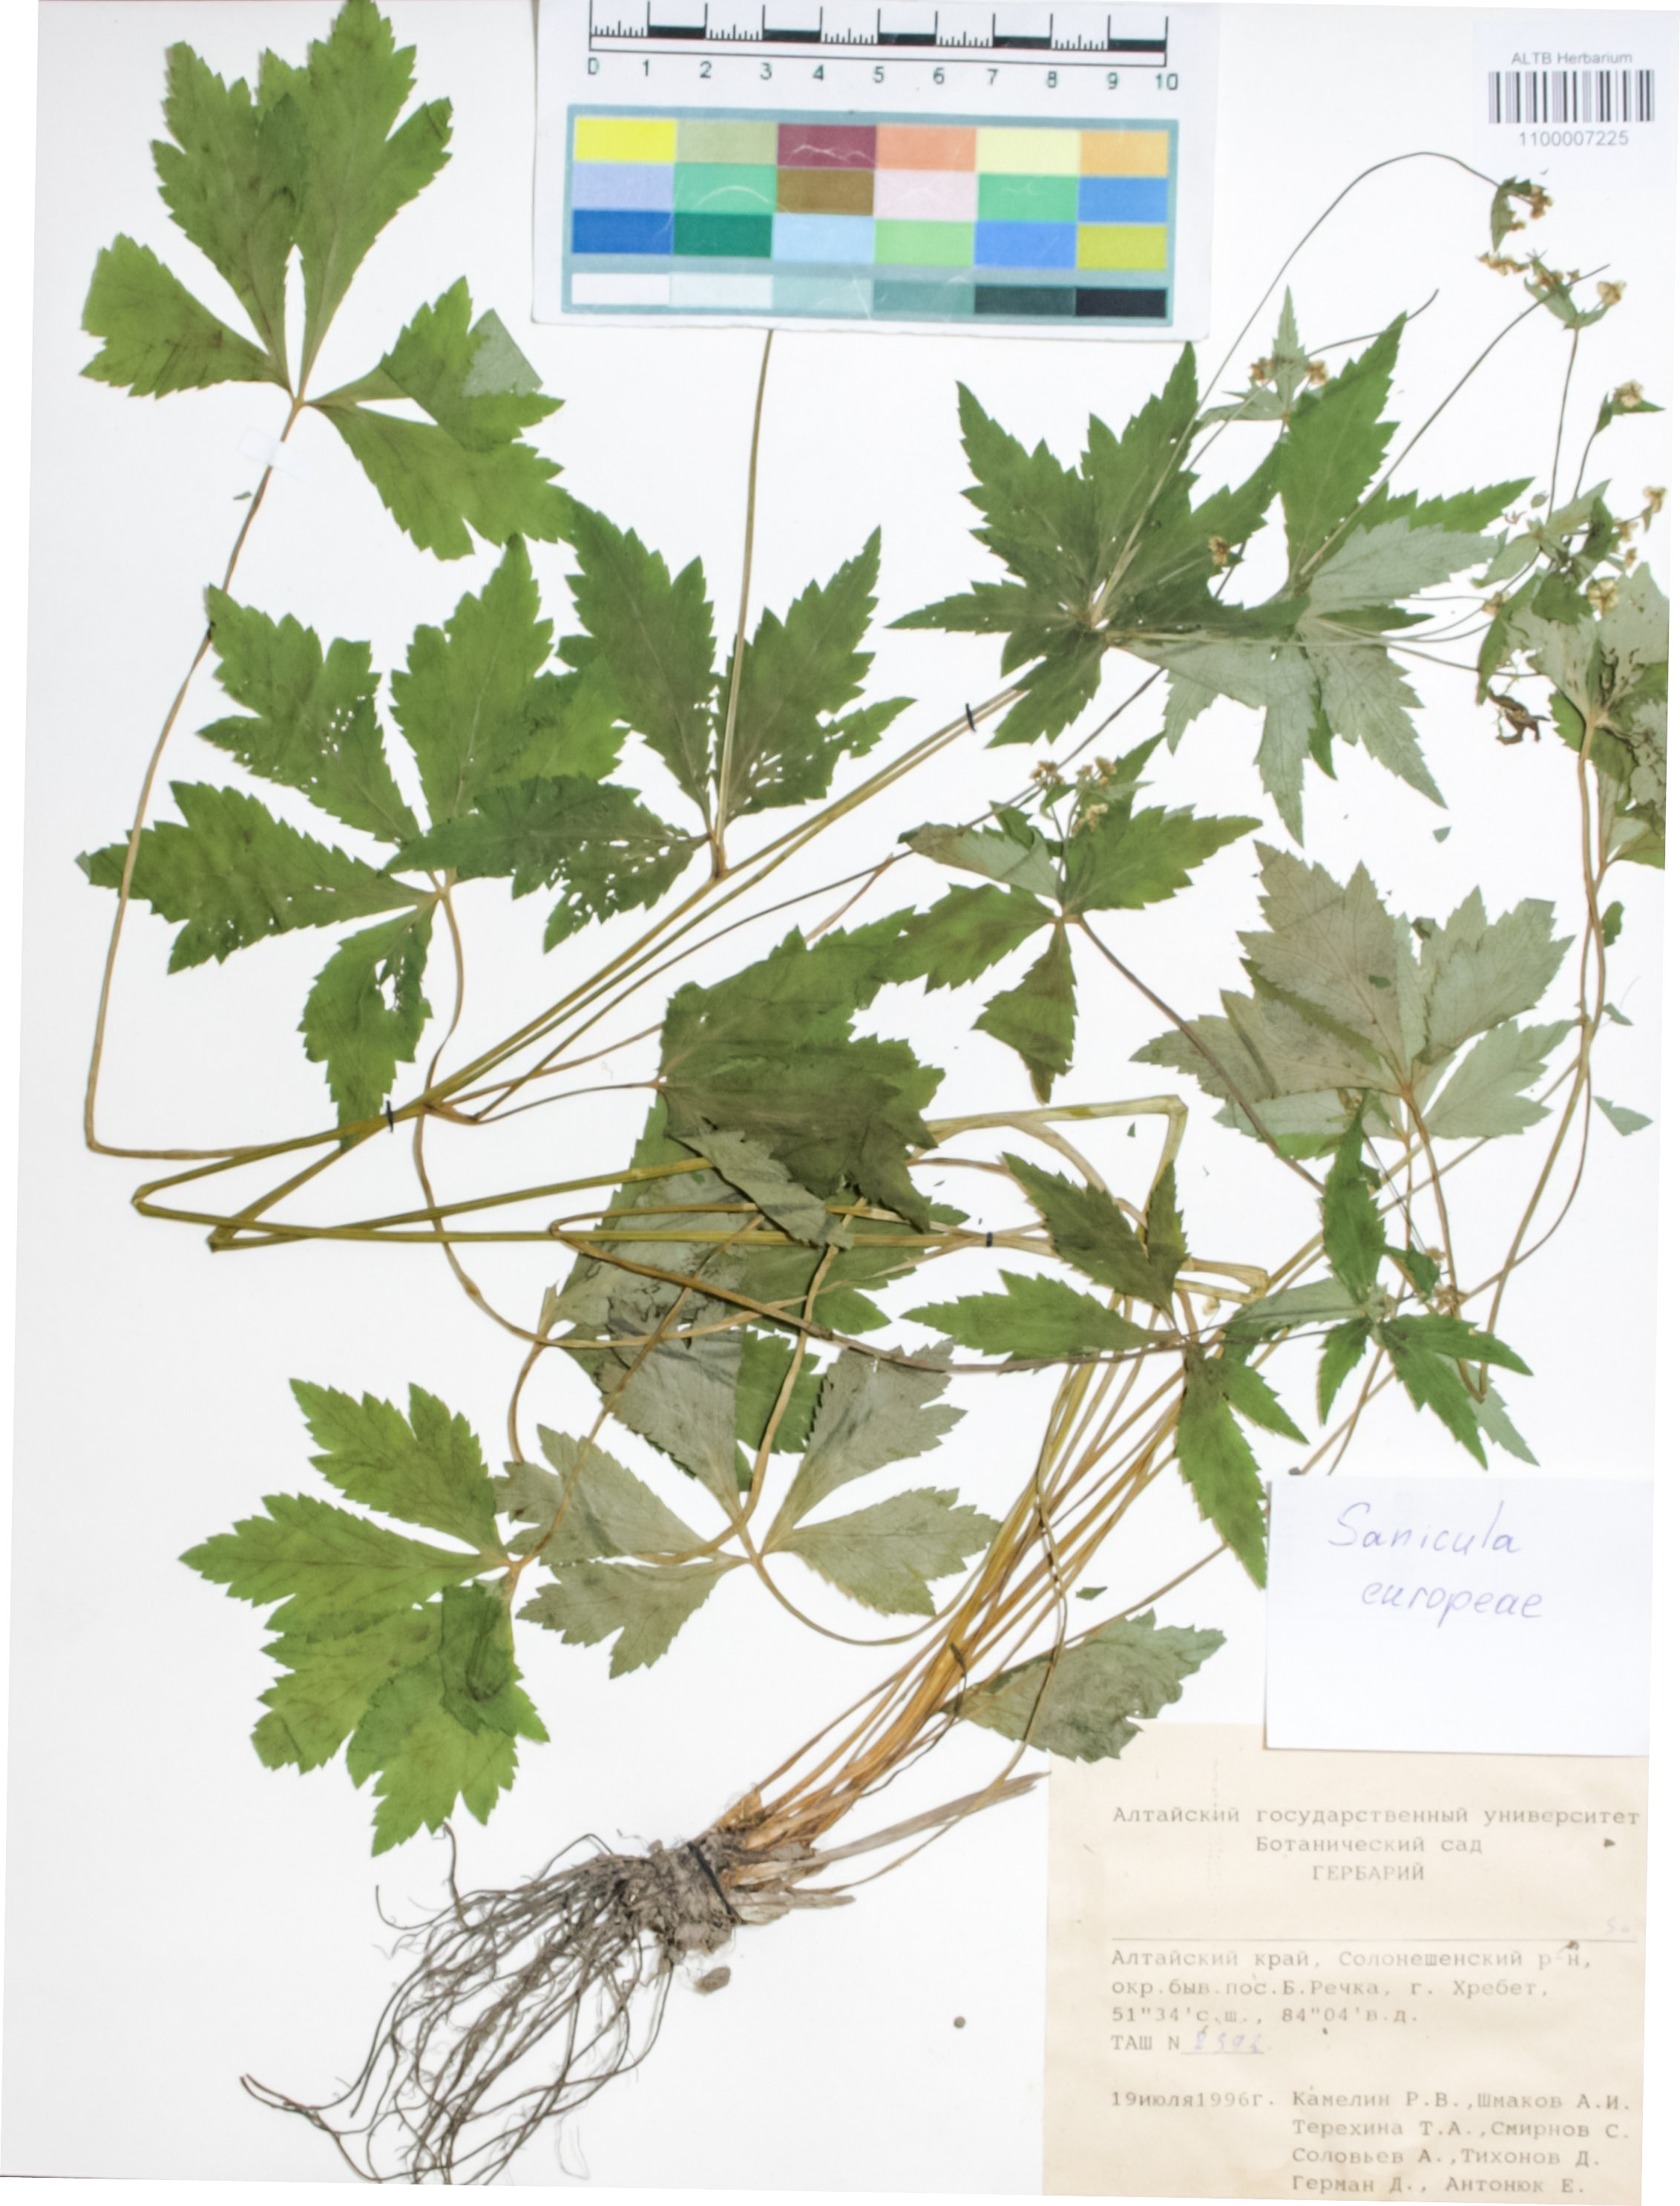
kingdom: Plantae
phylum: Tracheophyta
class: Magnoliopsida
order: Apiales
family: Apiaceae
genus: Sanicula
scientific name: Sanicula europaea
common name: Sanicle
